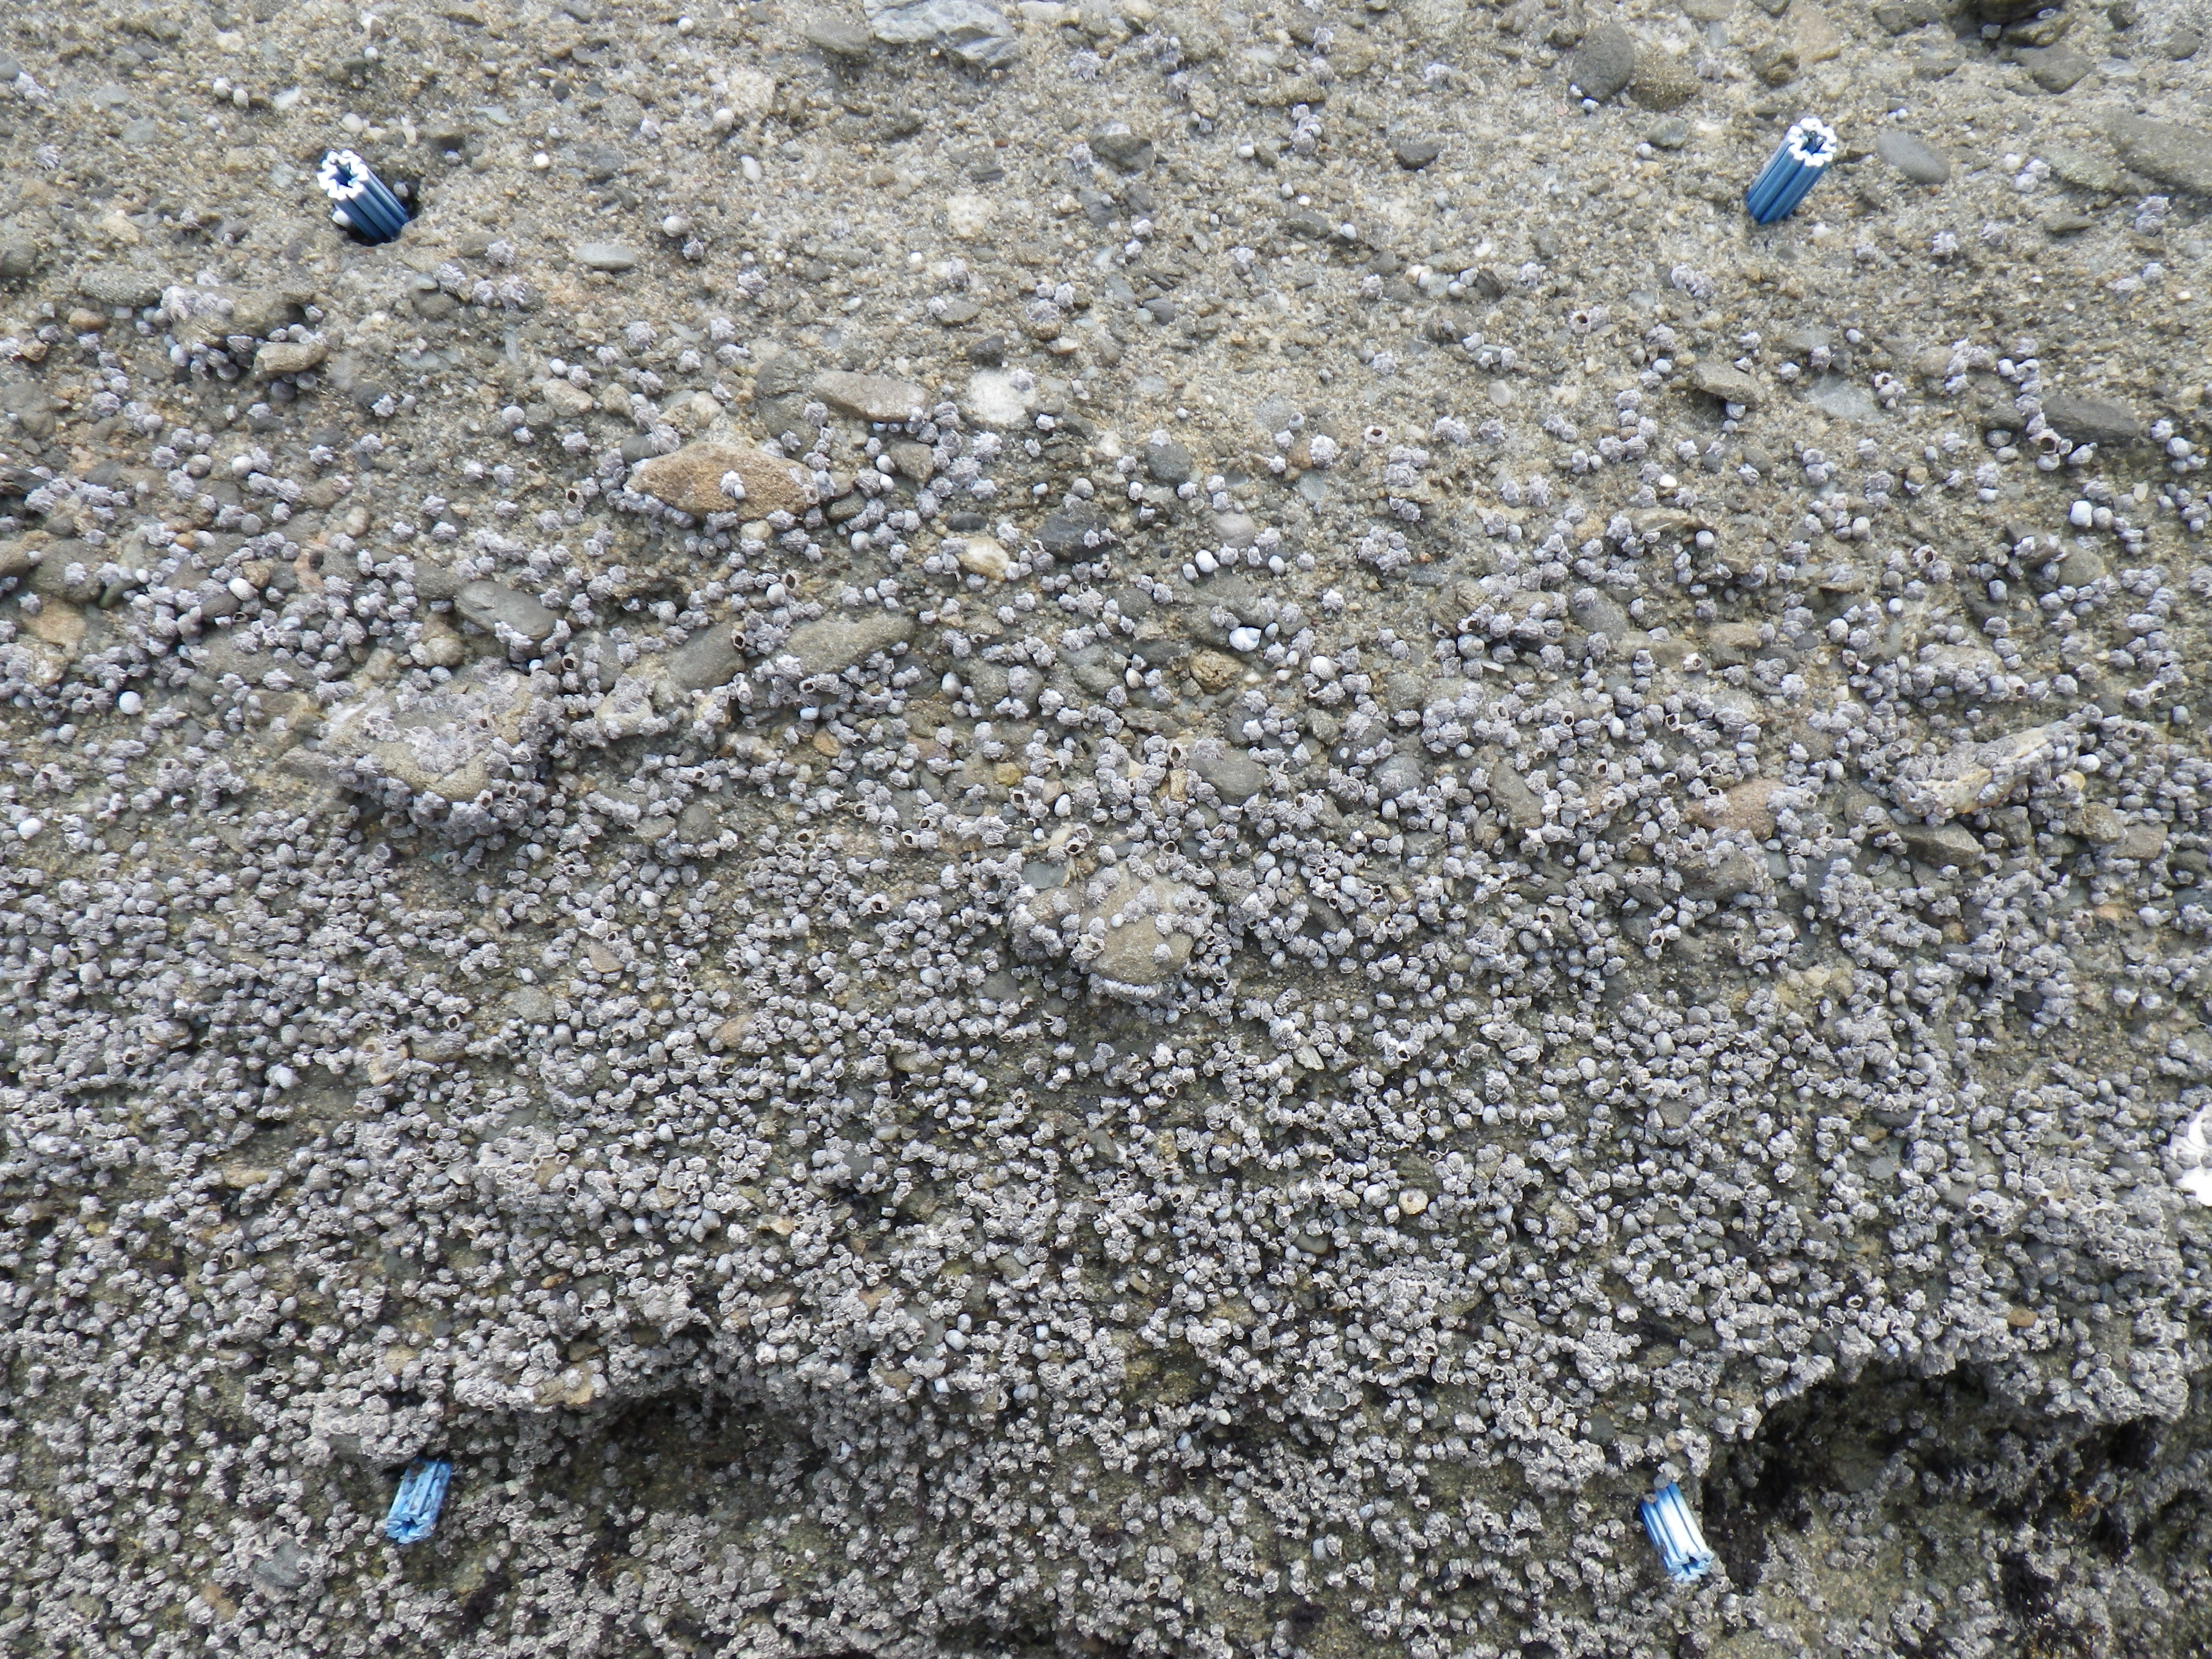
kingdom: Animalia
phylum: Arthropoda
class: Maxillopoda
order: Sessilia
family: Chthamalidae
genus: Chthamalus
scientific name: Chthamalus challengeri
